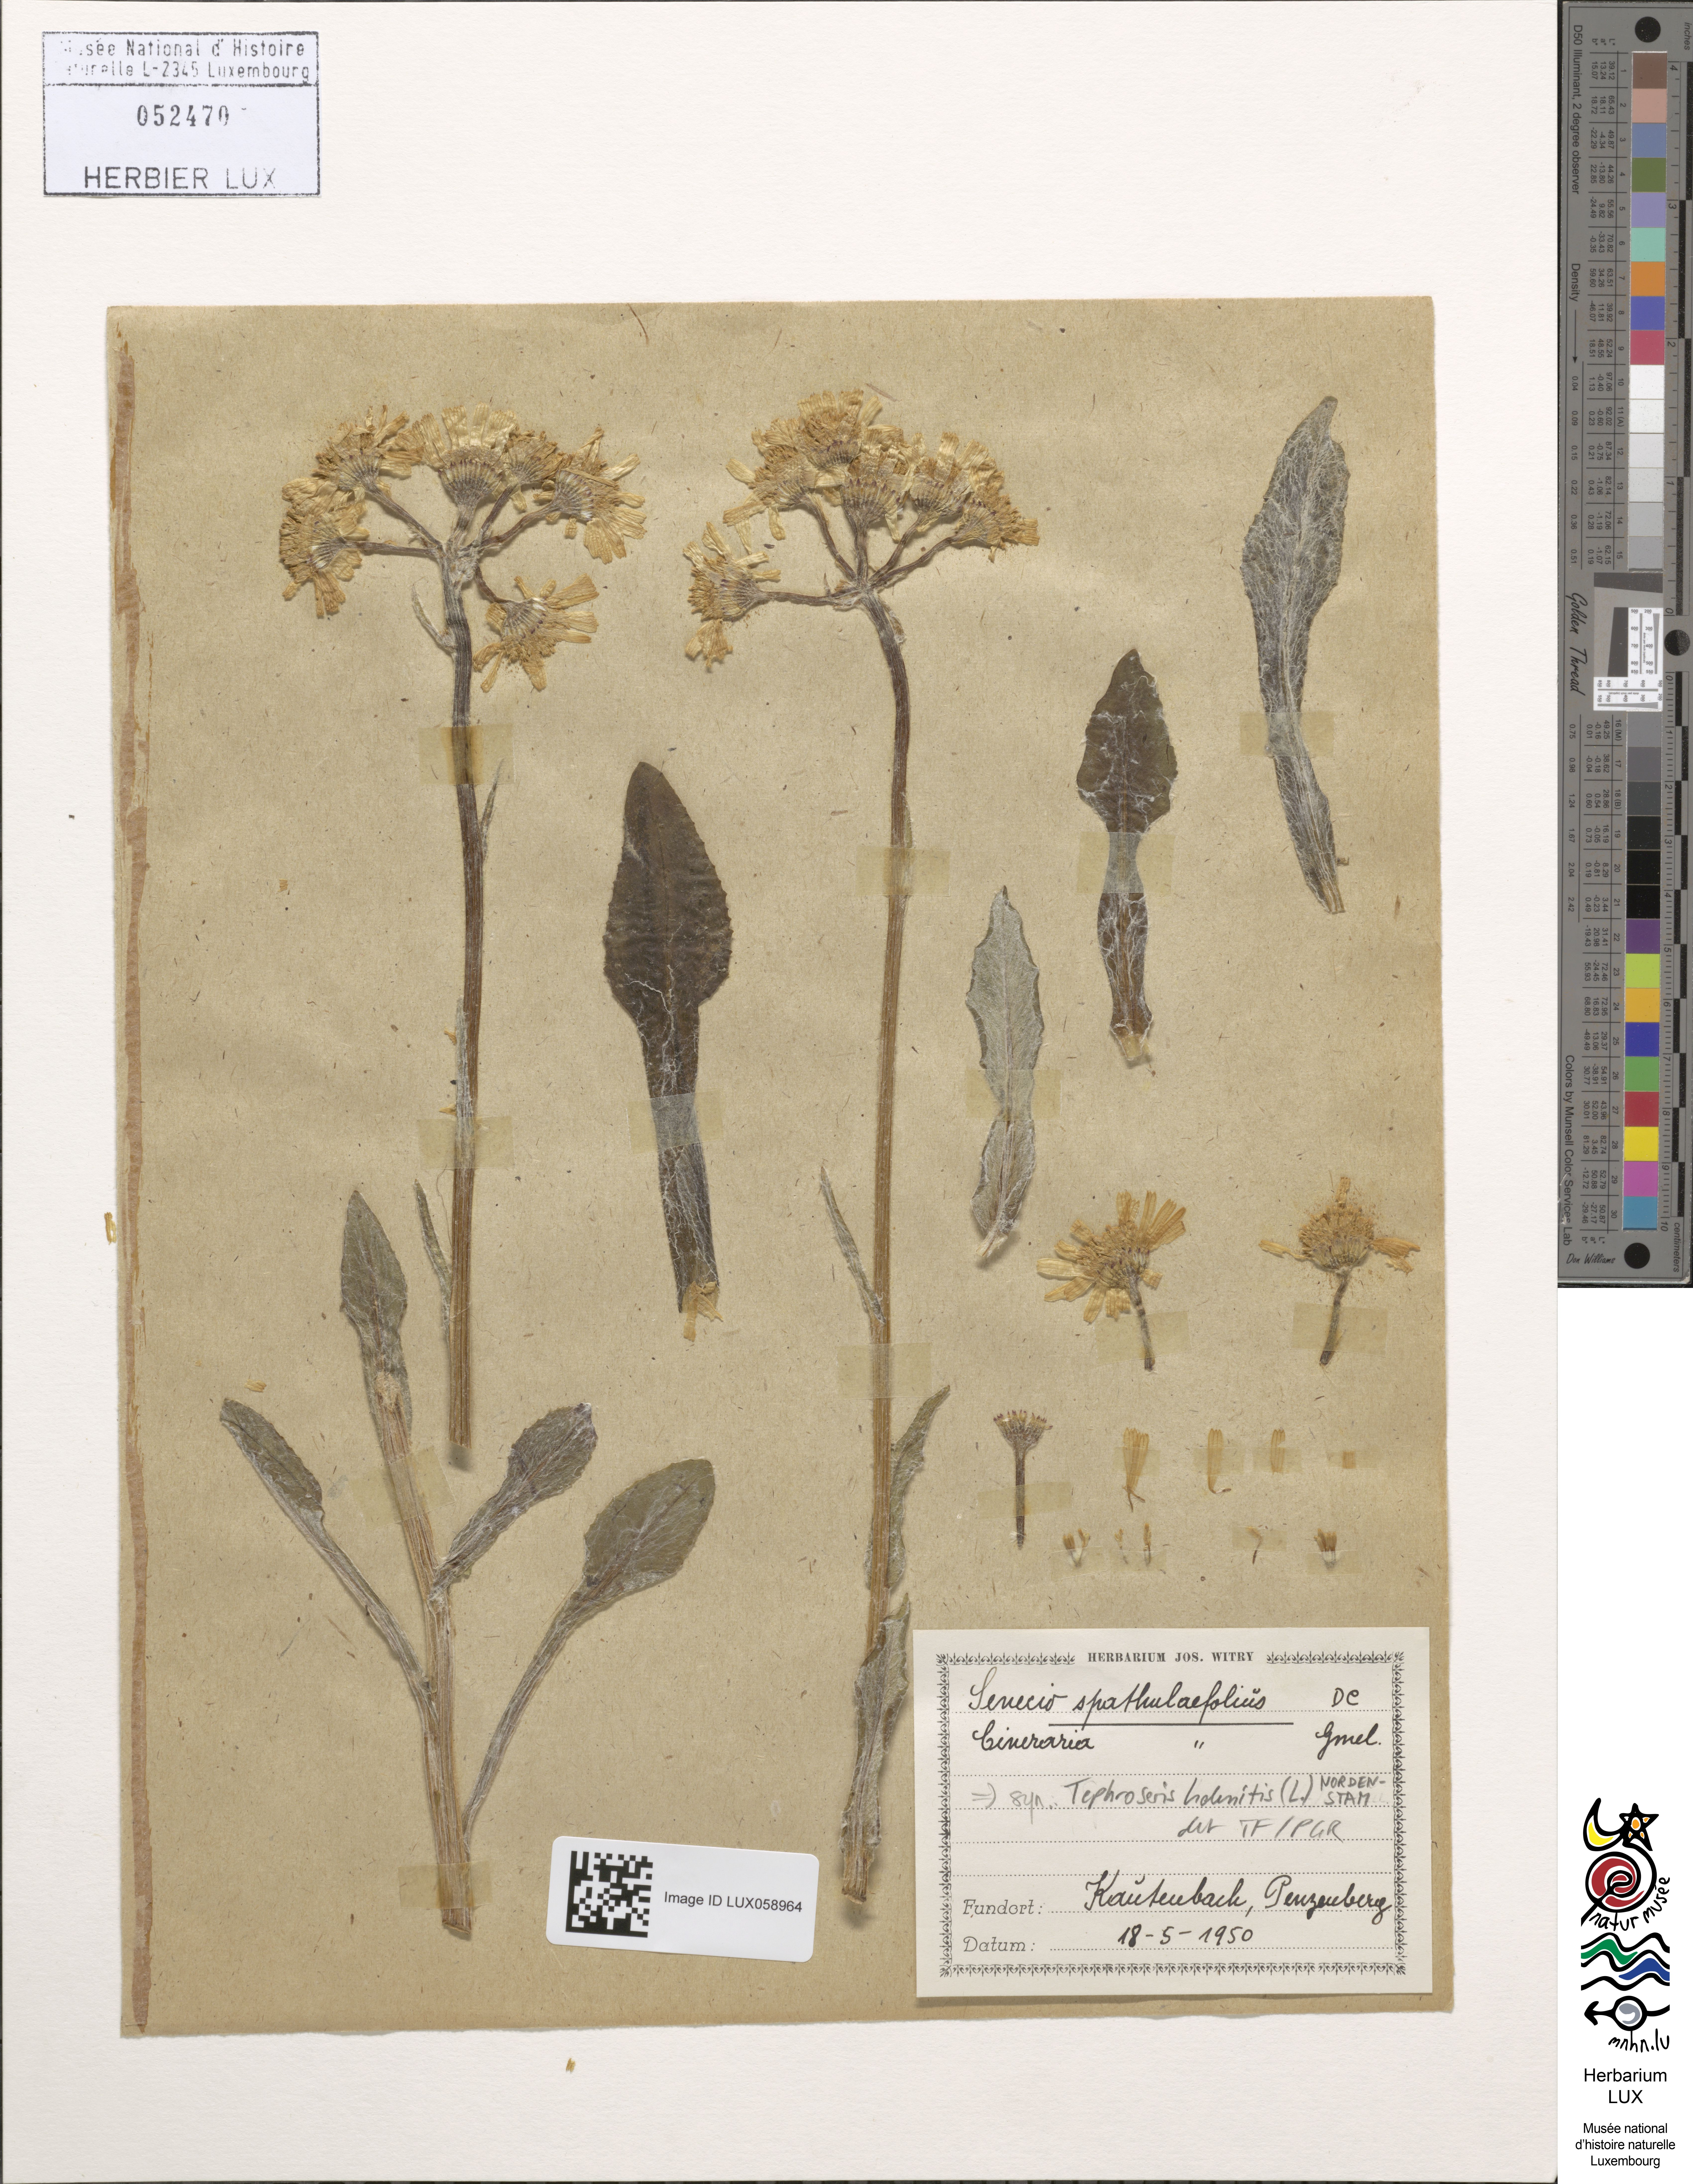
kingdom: Plantae
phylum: Tracheophyta
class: Magnoliopsida
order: Asterales
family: Asteraceae
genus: Senecio
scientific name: Senecio spathulaefolius
